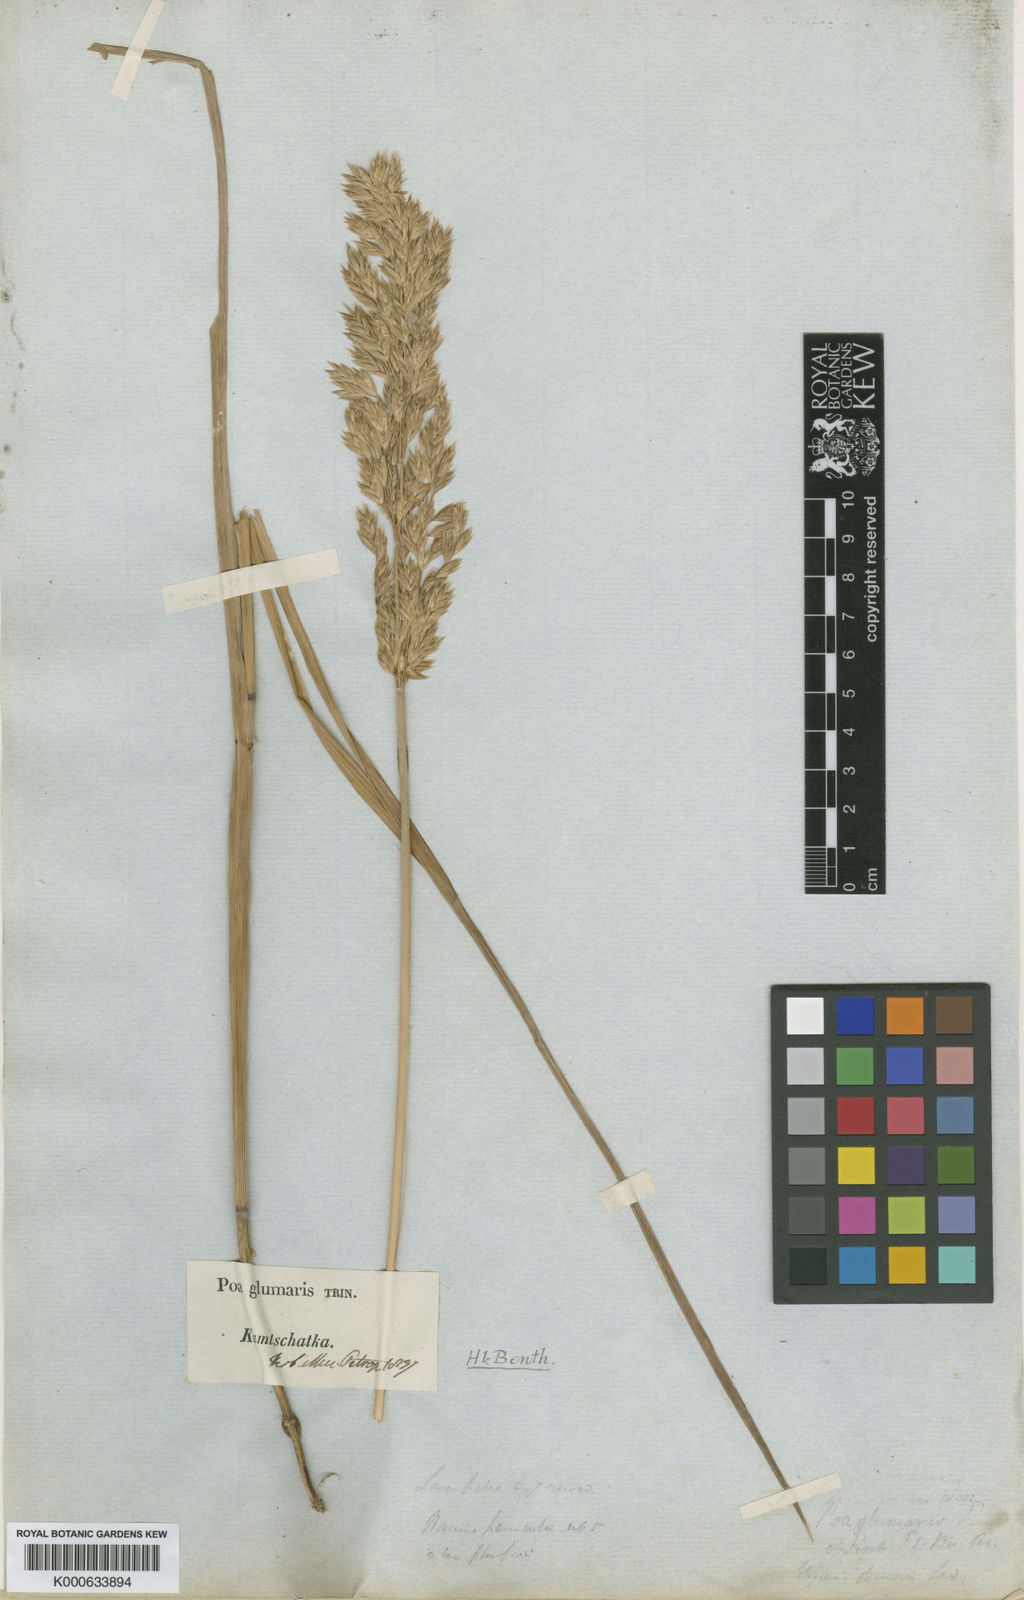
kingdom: Plantae
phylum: Tracheophyta
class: Liliopsida
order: Poales
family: Poaceae
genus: Arctopoa
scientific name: Arctopoa eminens
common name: Eminent bluegrass
